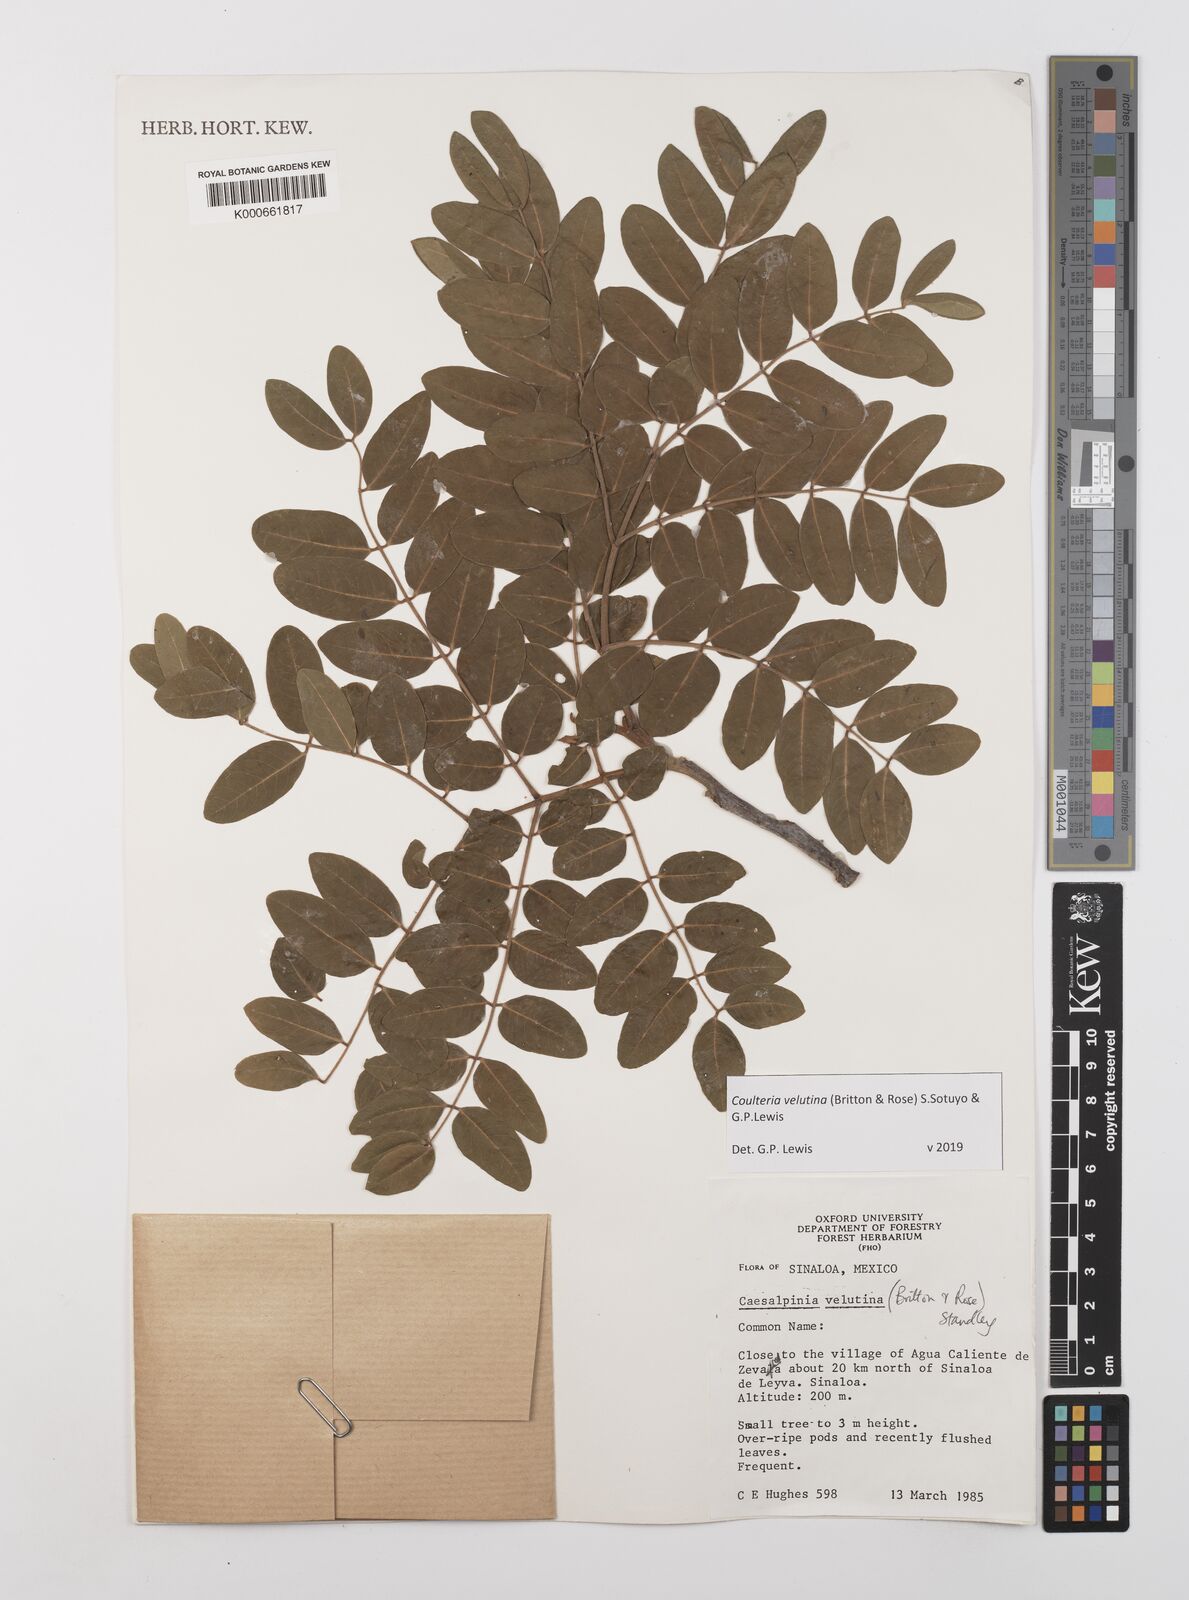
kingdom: Plantae
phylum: Tracheophyta
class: Magnoliopsida
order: Fabales
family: Fabaceae
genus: Coulteria
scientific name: Coulteria velutina
